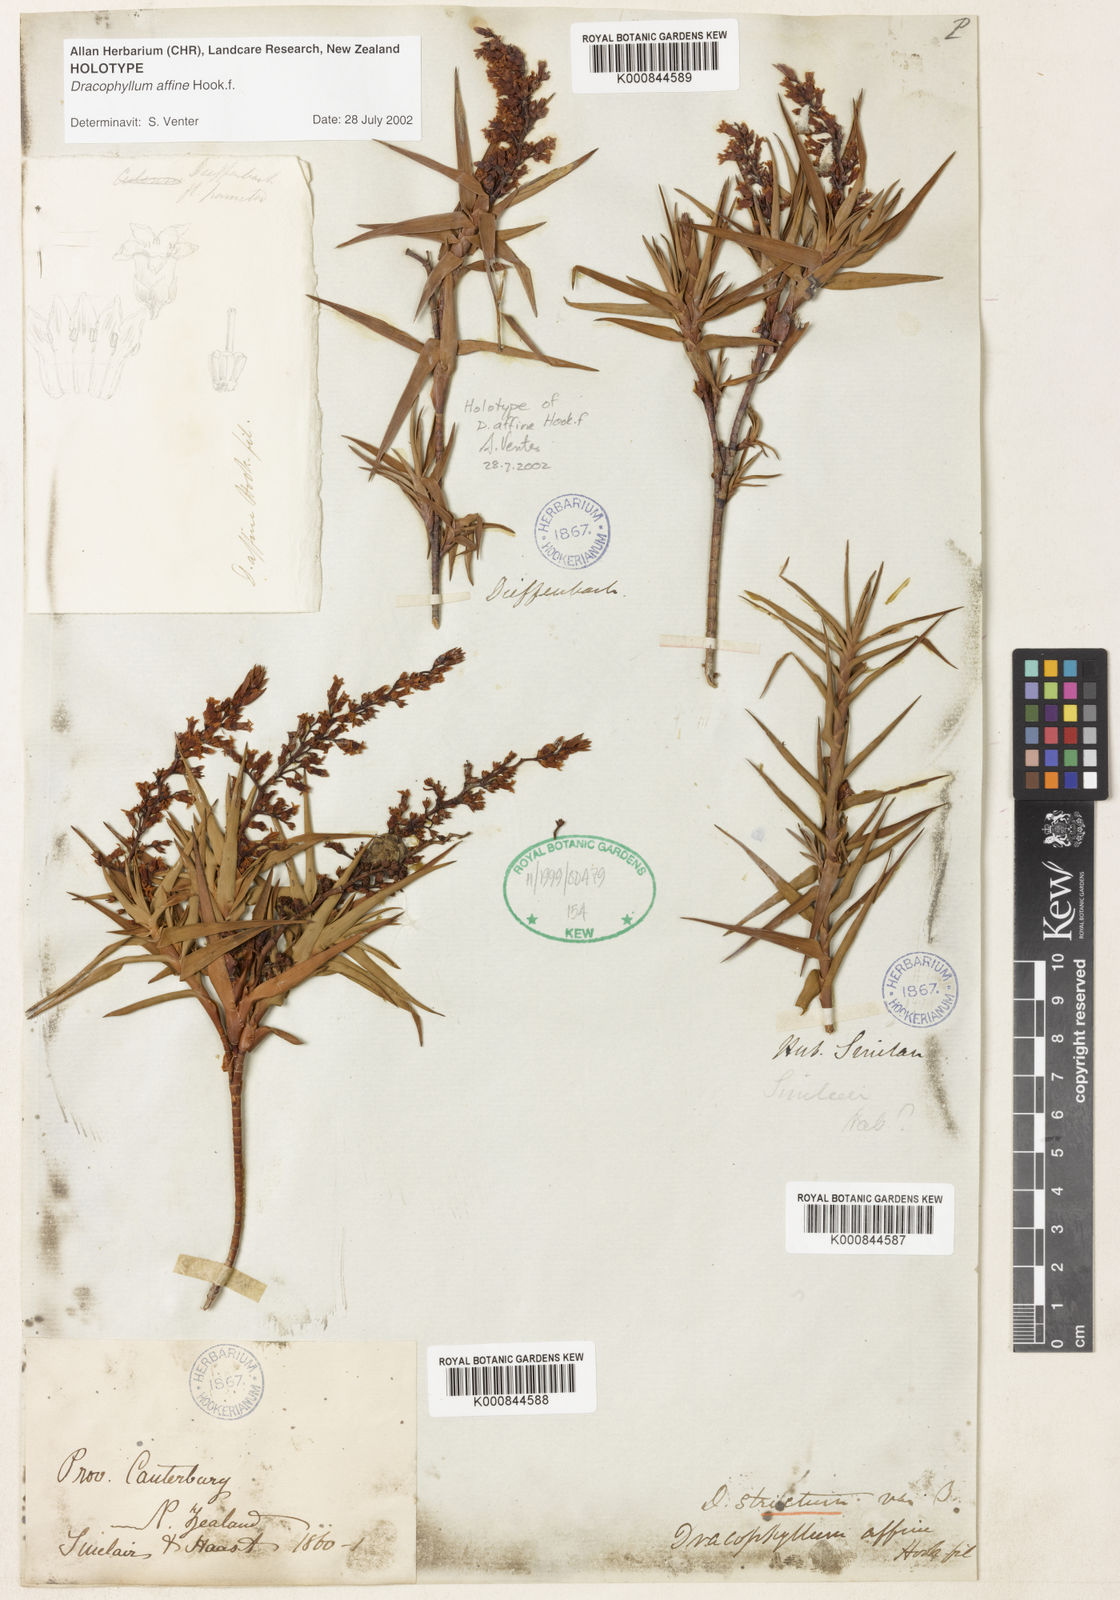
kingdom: Plantae
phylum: Tracheophyta
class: Magnoliopsida
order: Ericales
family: Ericaceae
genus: Dracophyllum
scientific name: Dracophyllum strictum
